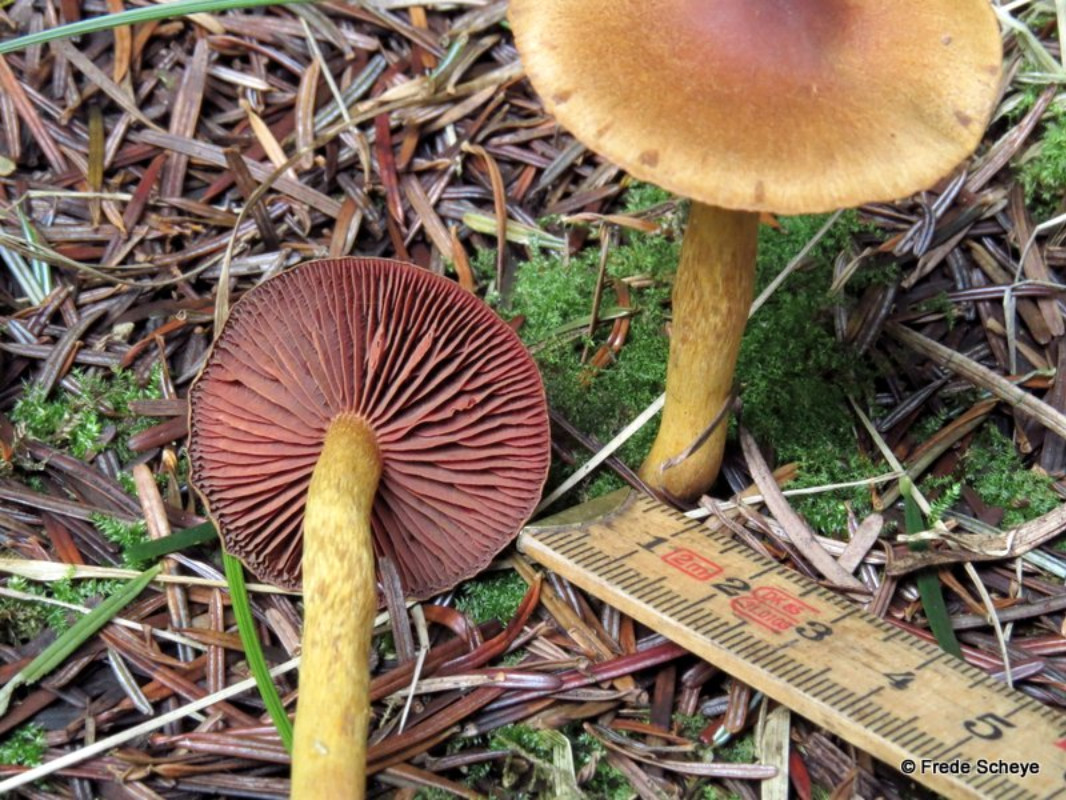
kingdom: Fungi
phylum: Basidiomycota
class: Agaricomycetes
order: Agaricales
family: Cortinariaceae
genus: Cortinarius
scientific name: Cortinarius
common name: cinnoberbladet slørhat
